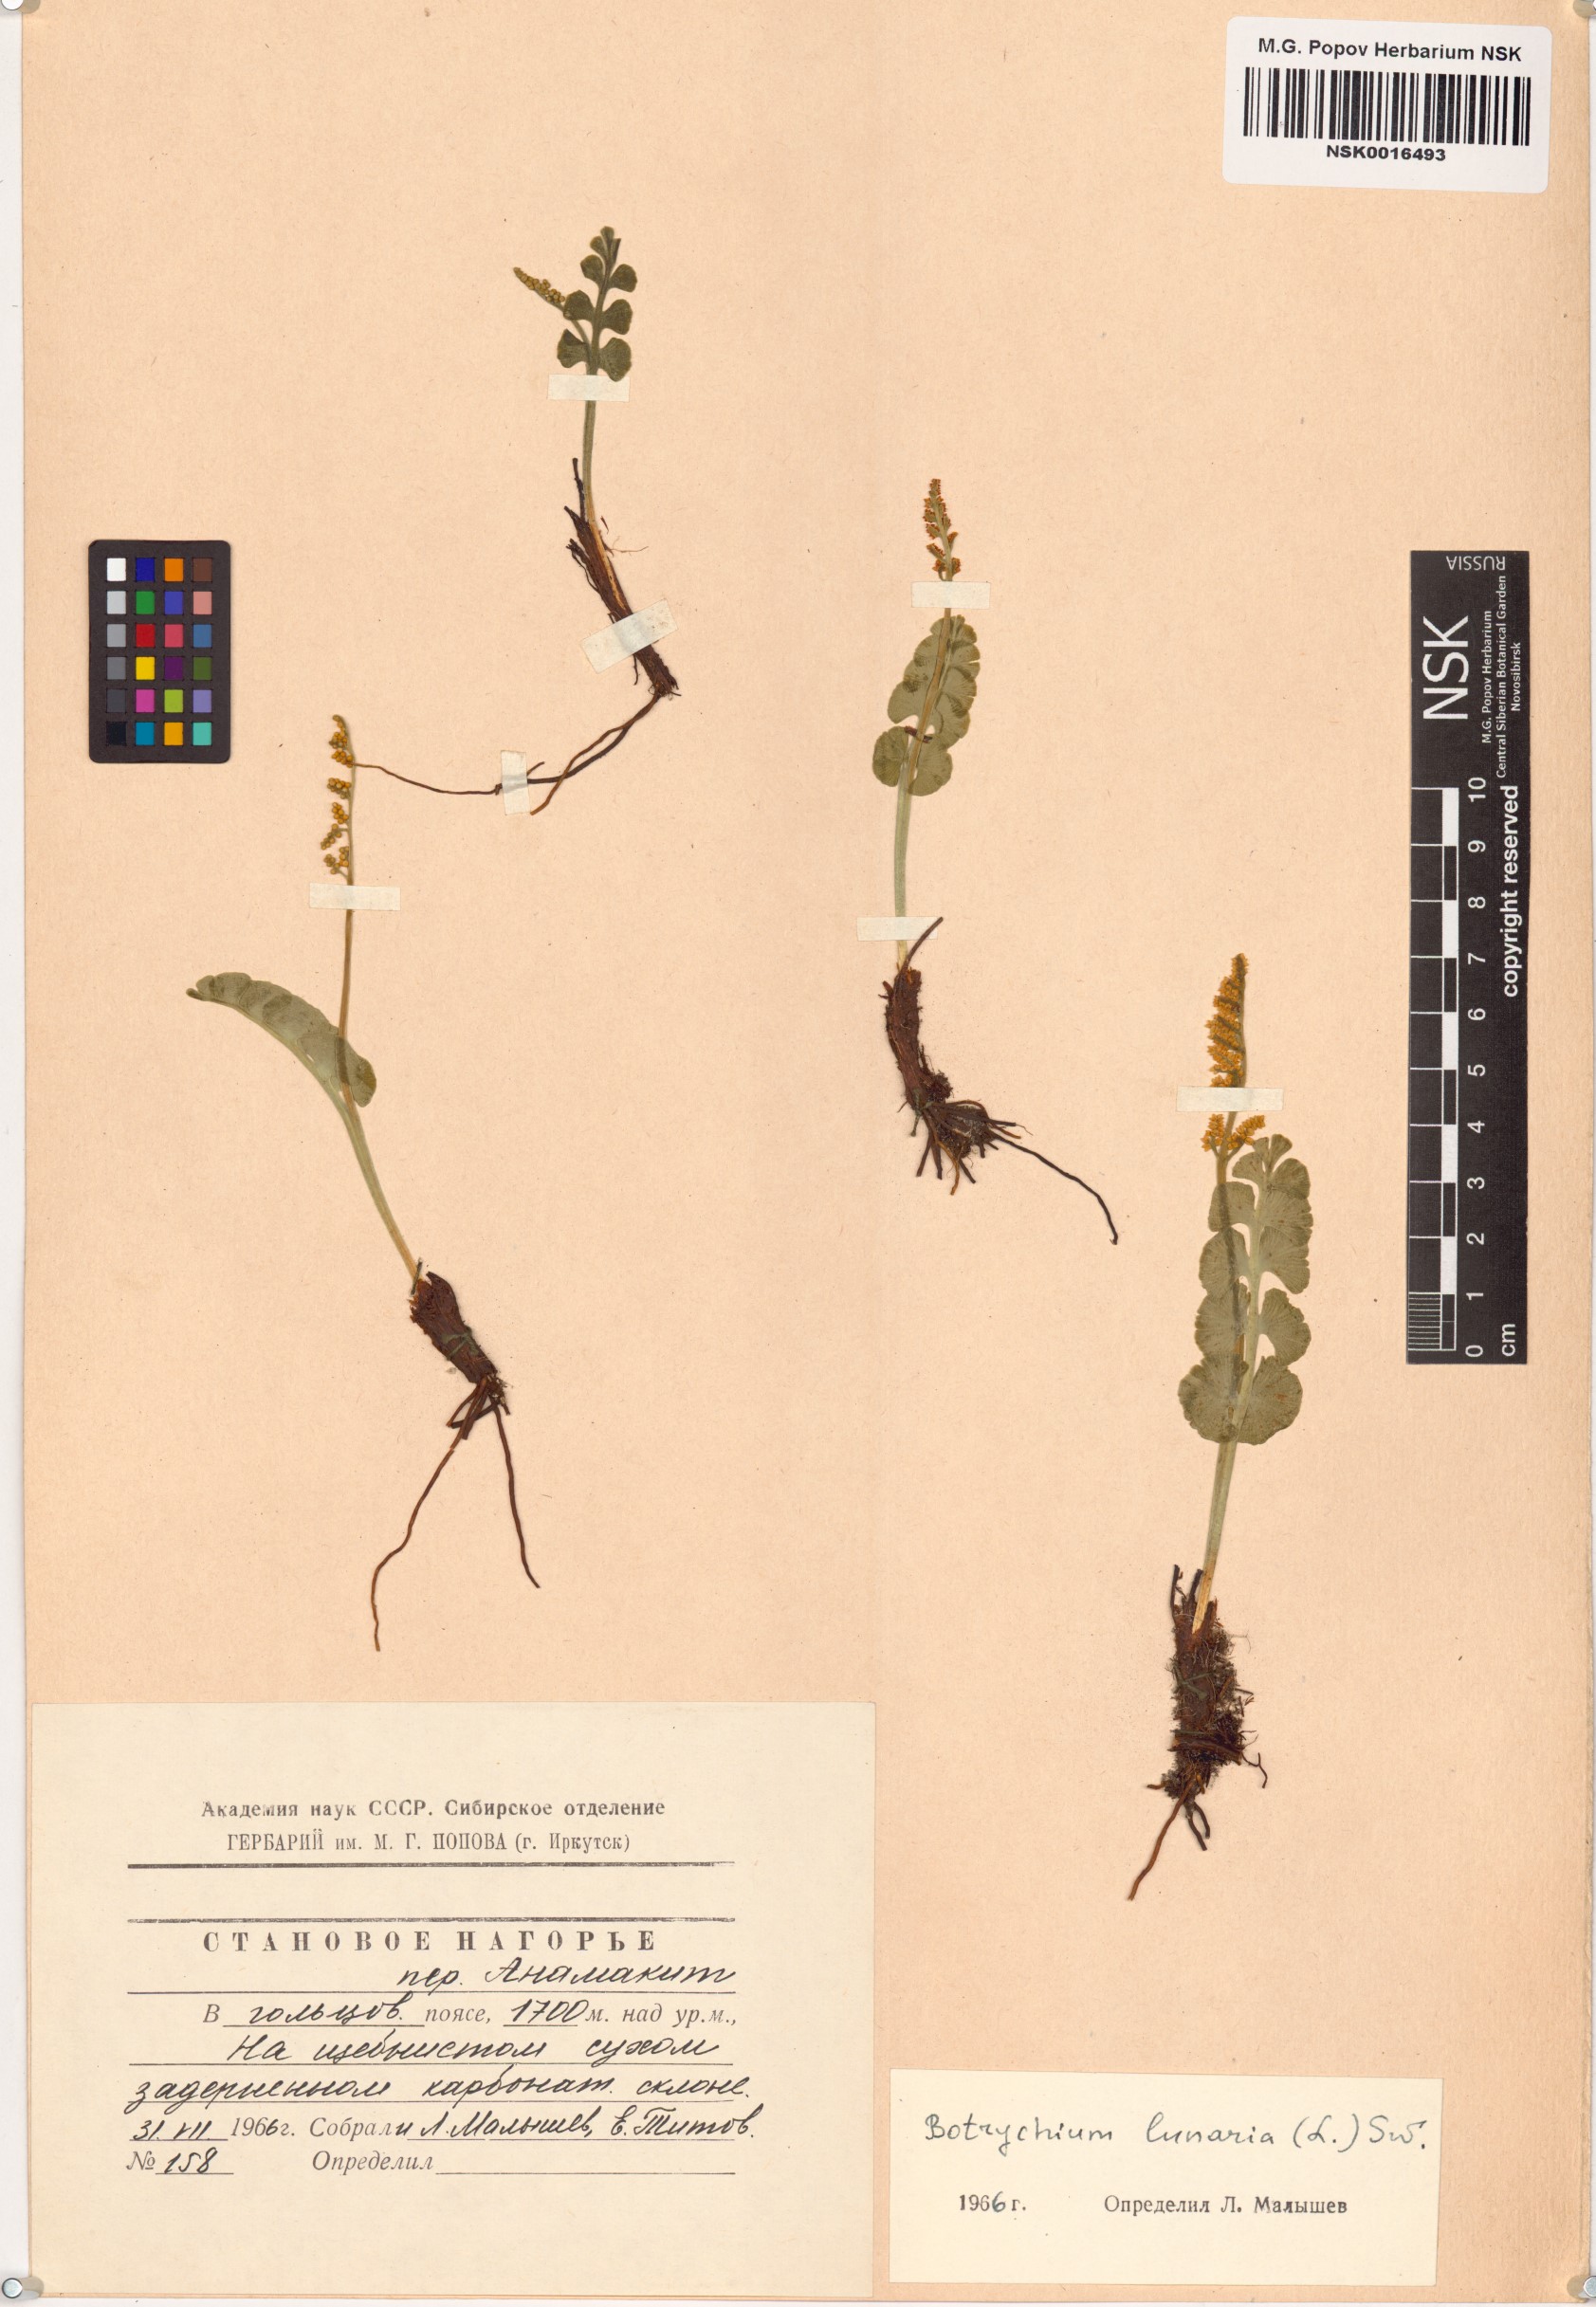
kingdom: Plantae
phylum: Tracheophyta
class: Polypodiopsida
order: Ophioglossales
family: Ophioglossaceae
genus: Botrychium
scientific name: Botrychium lunaria
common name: Moonwort
